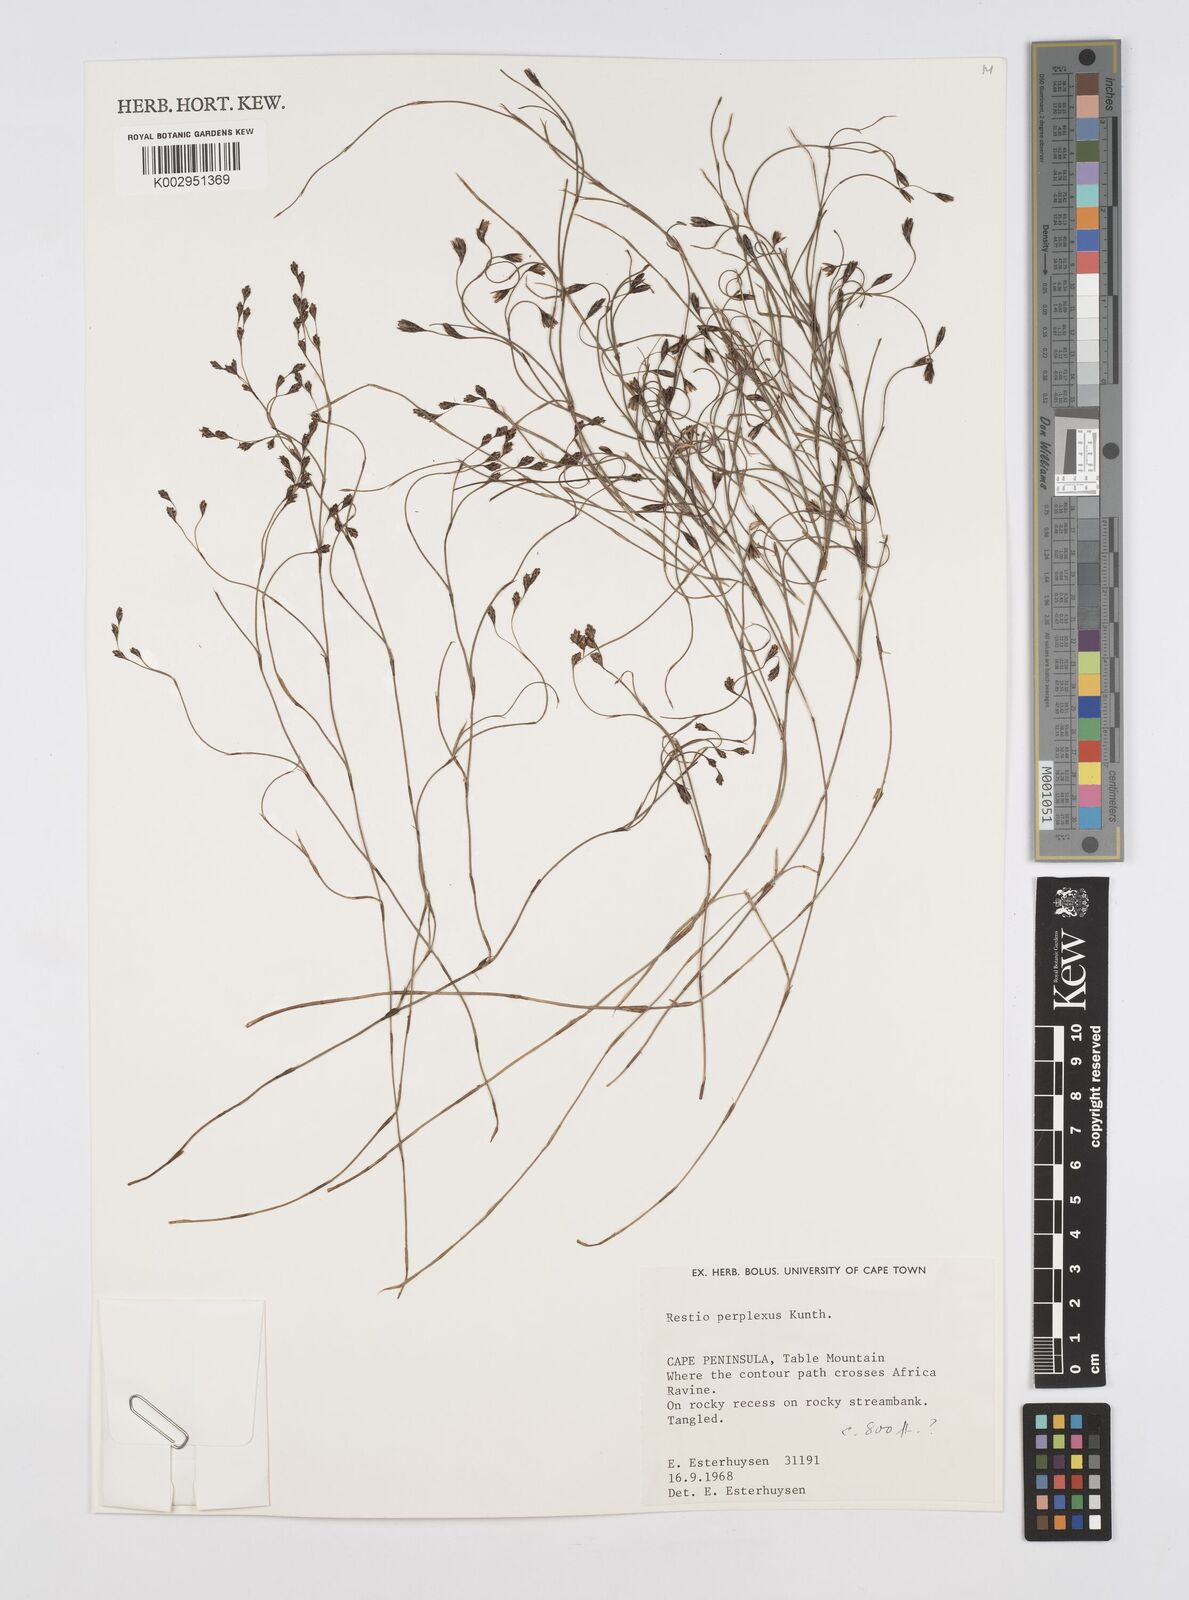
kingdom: Plantae
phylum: Tracheophyta
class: Liliopsida
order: Poales
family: Restionaceae
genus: Restio
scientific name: Restio perplexus
